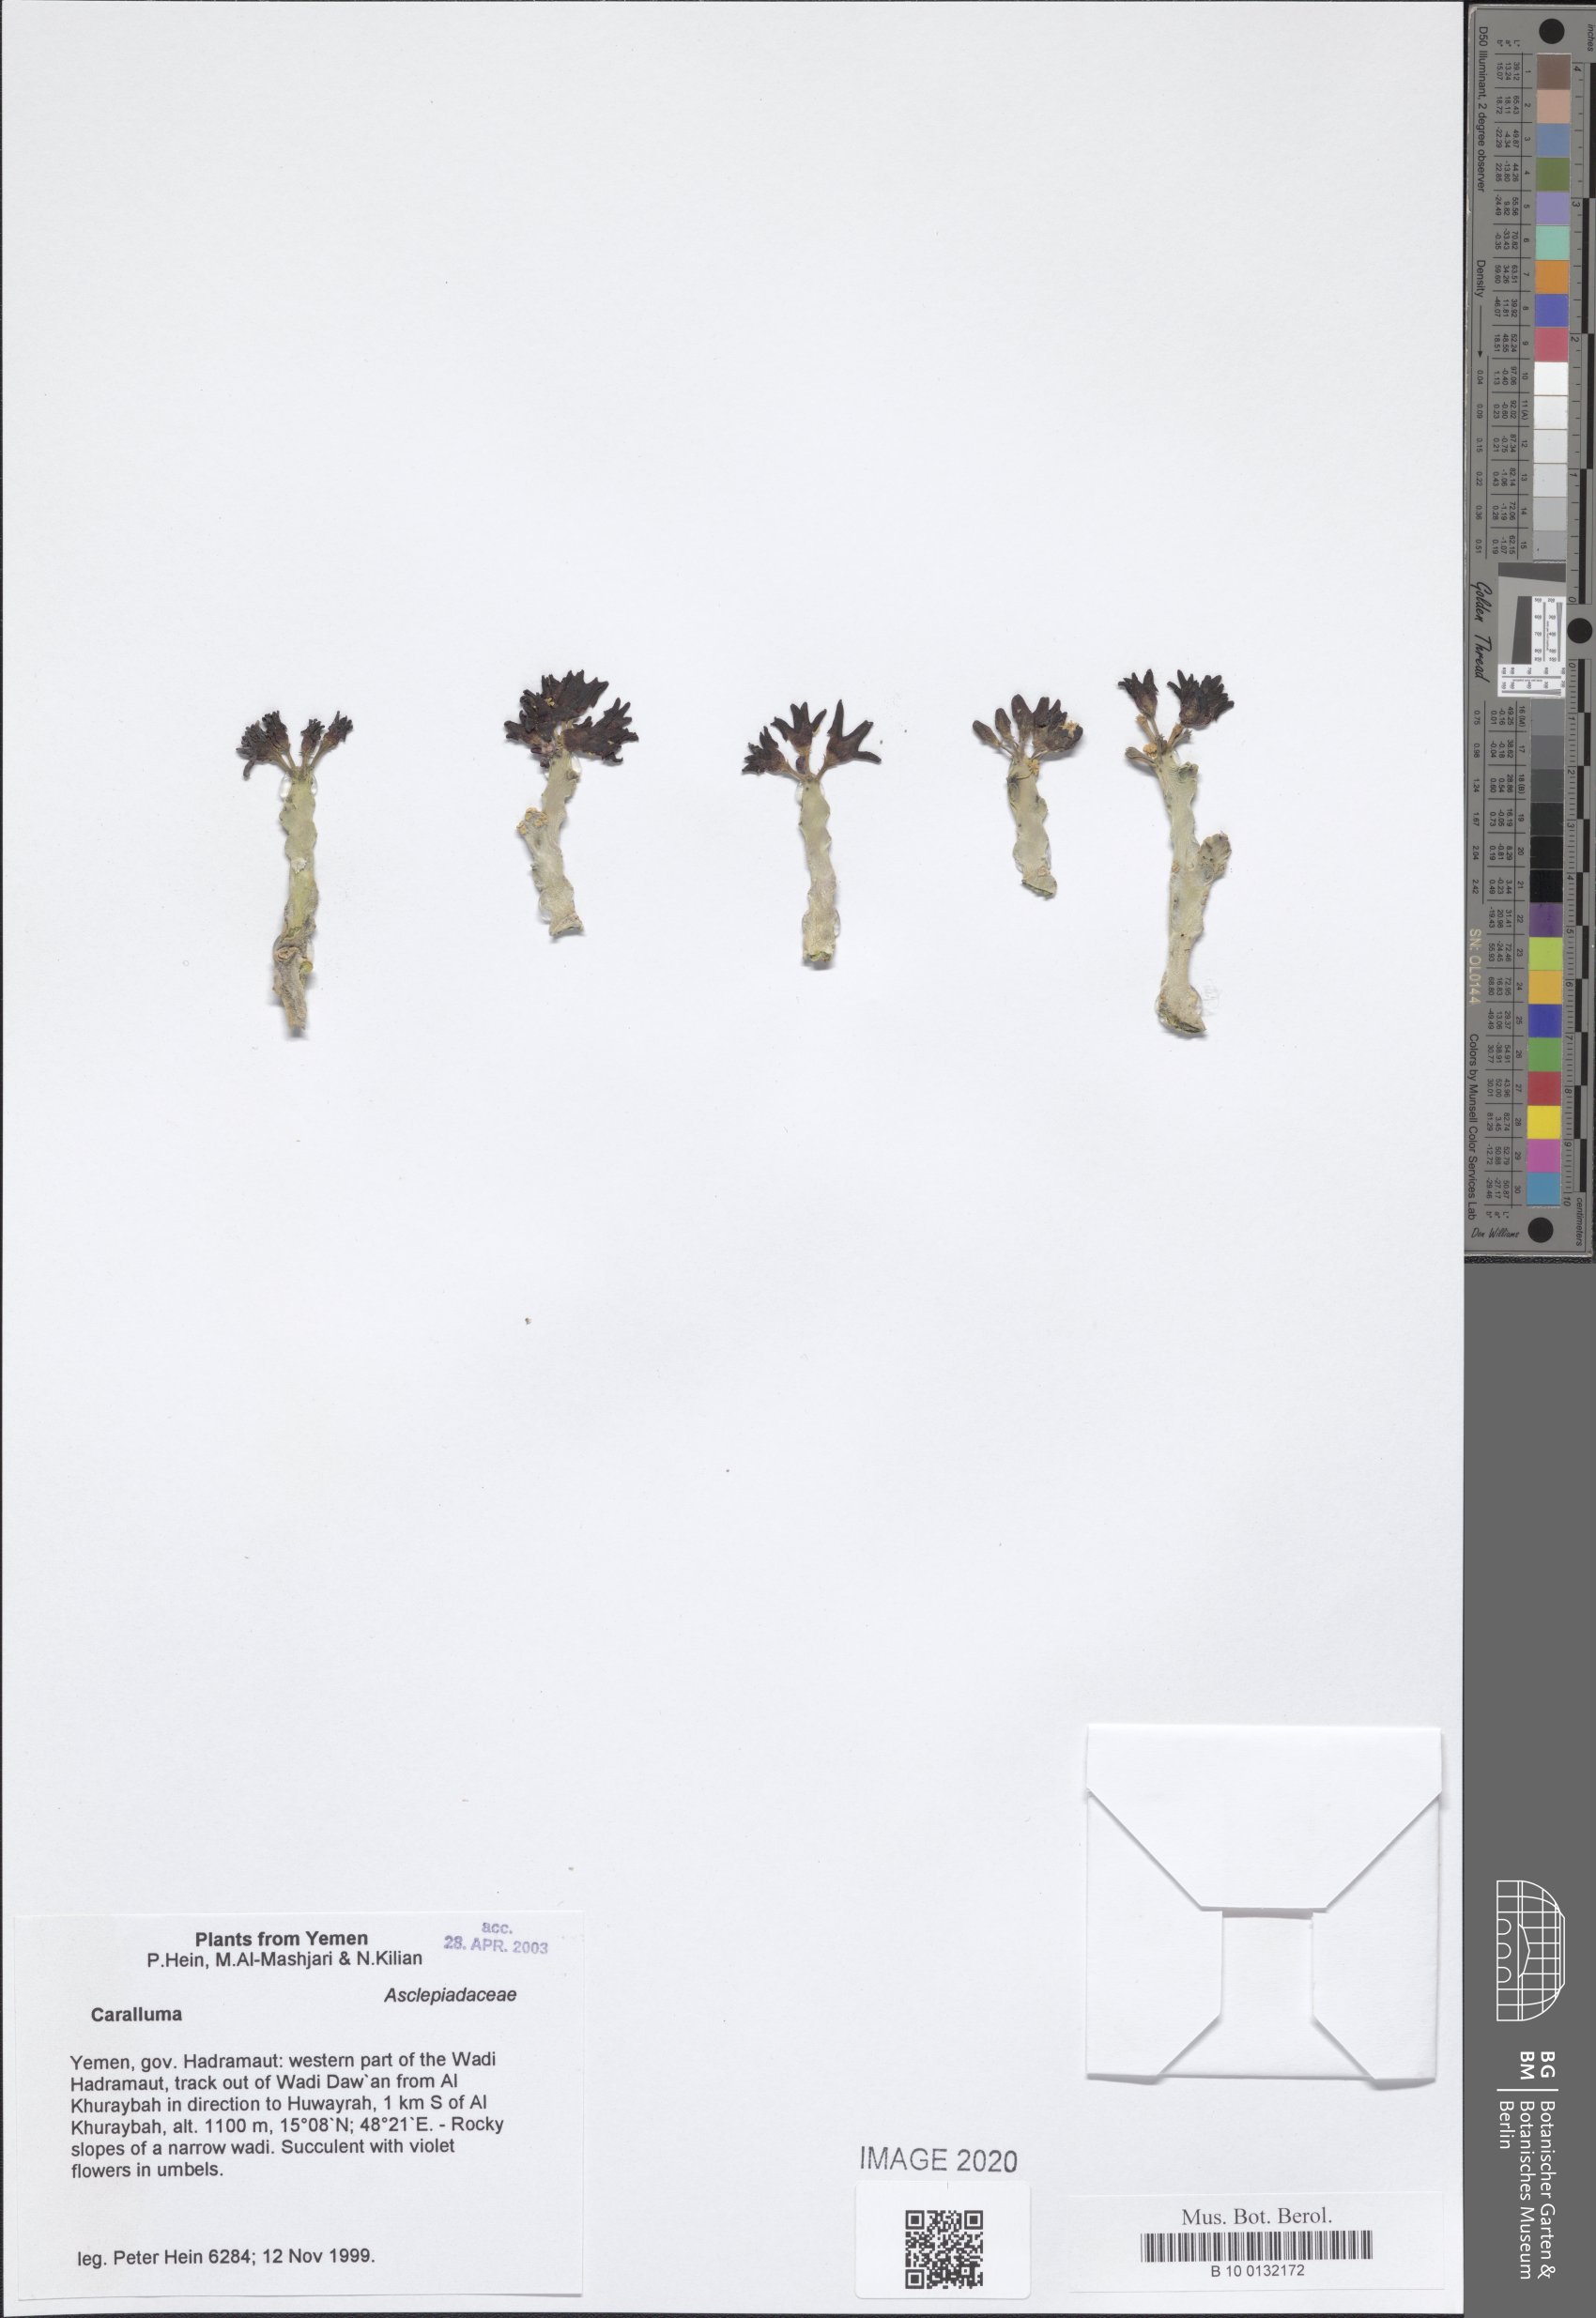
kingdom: Plantae
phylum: Tracheophyta
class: Magnoliopsida
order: Gentianales
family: Apocynaceae
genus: Ceropegia
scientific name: Ceropegia awdeliana
